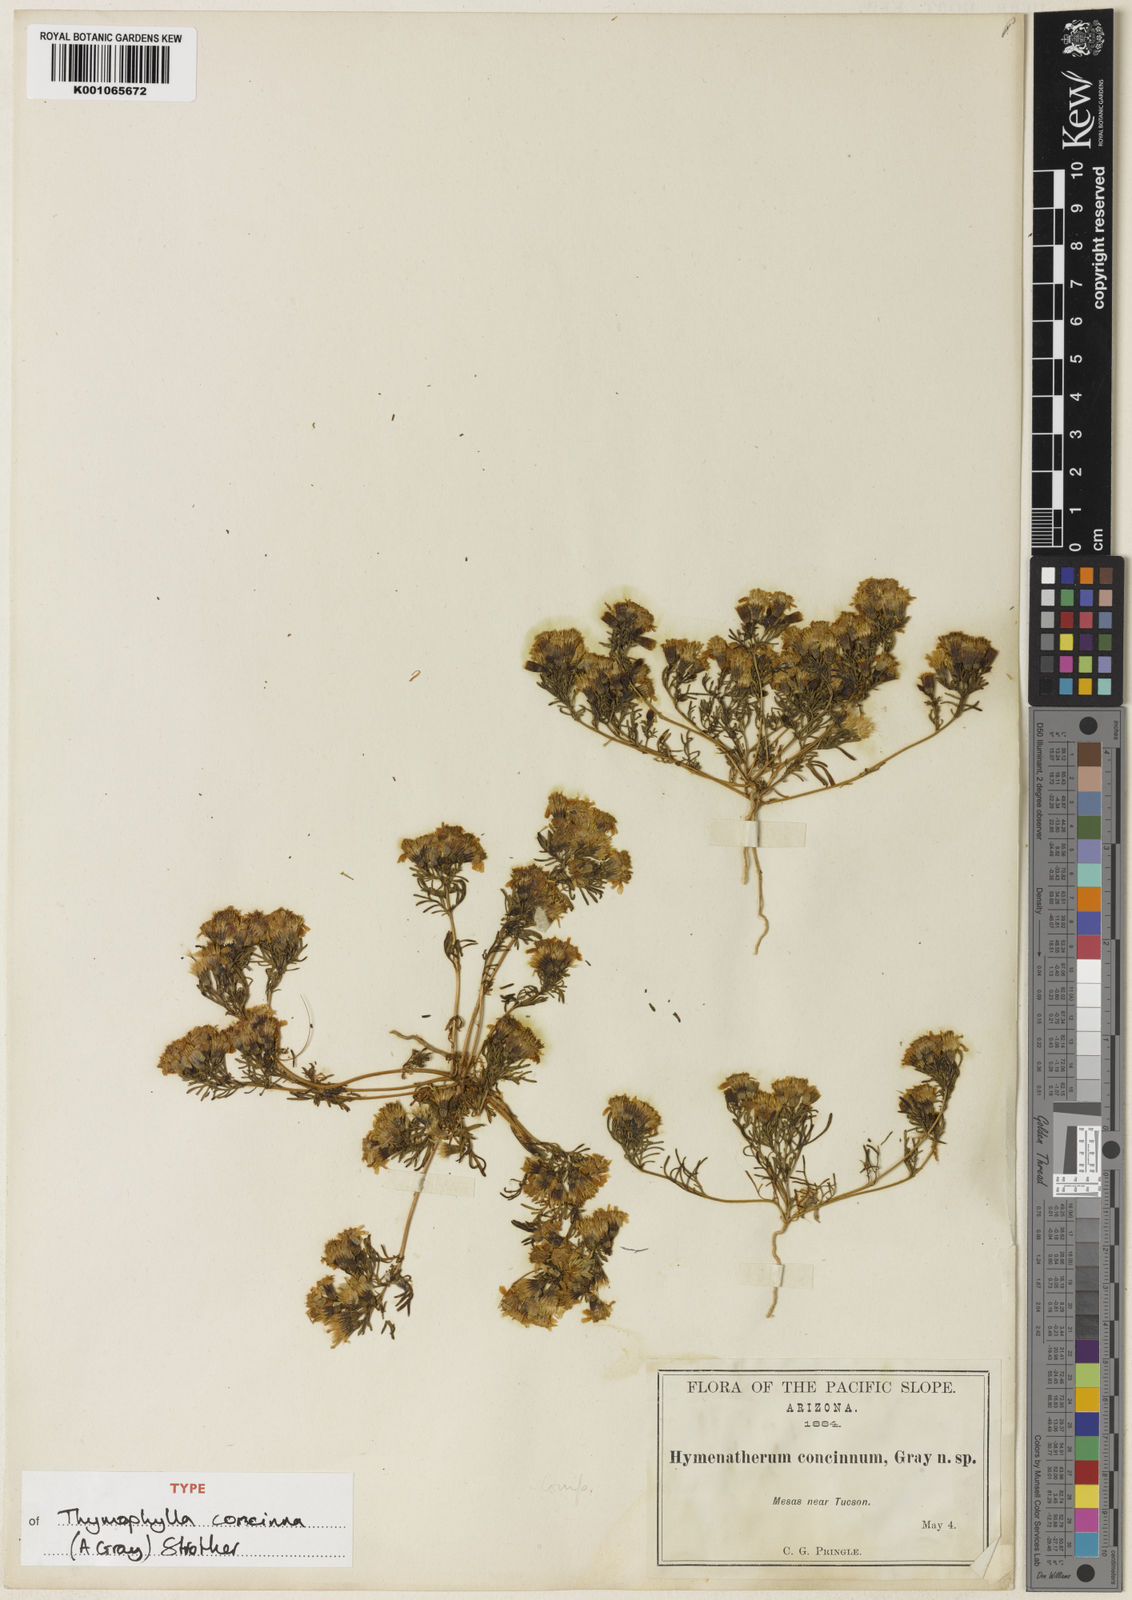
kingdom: Plantae
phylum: Tracheophyta
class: Magnoliopsida
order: Asterales
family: Asteraceae
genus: Thymophylla
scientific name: Thymophylla concinna
